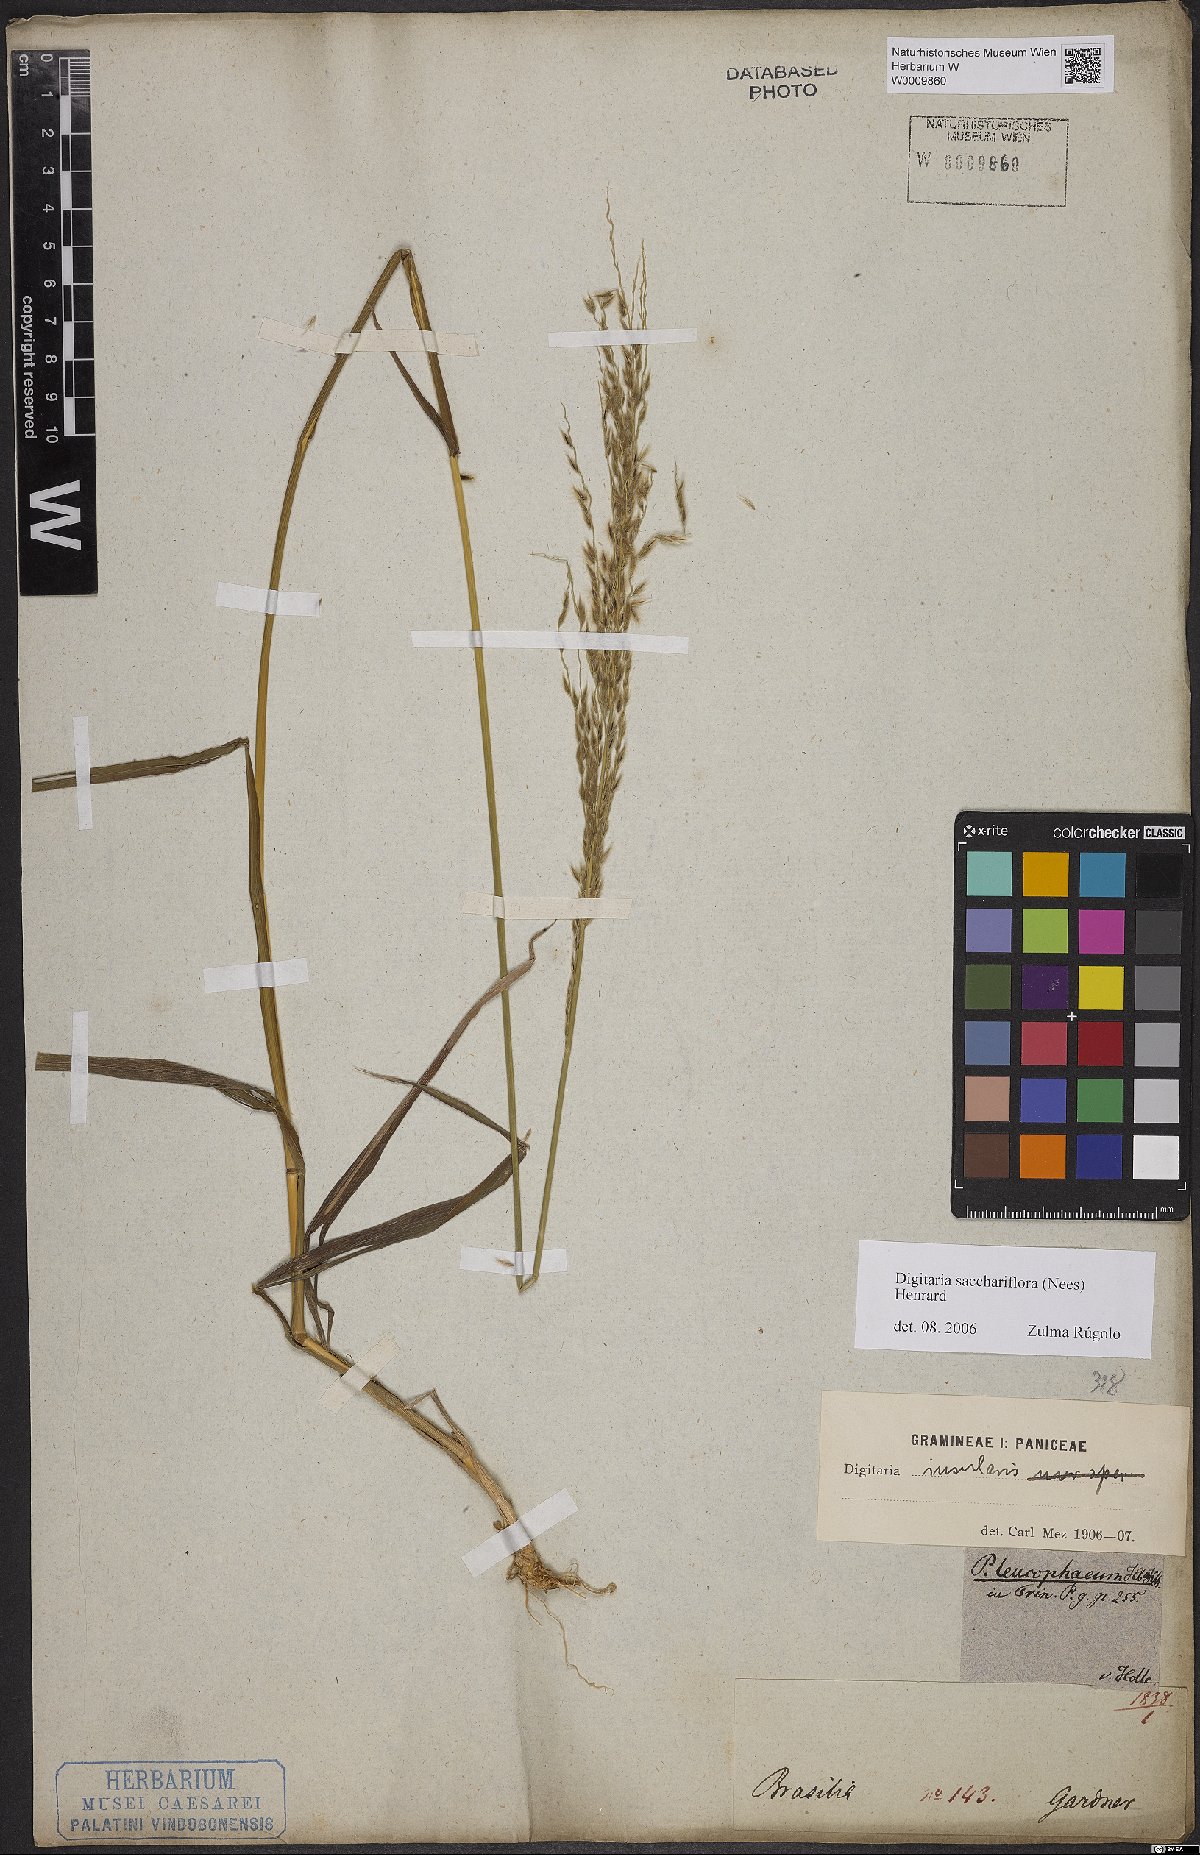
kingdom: Plantae
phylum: Tracheophyta
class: Liliopsida
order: Poales
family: Poaceae
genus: Digitaria
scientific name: Digitaria sacchariflora
